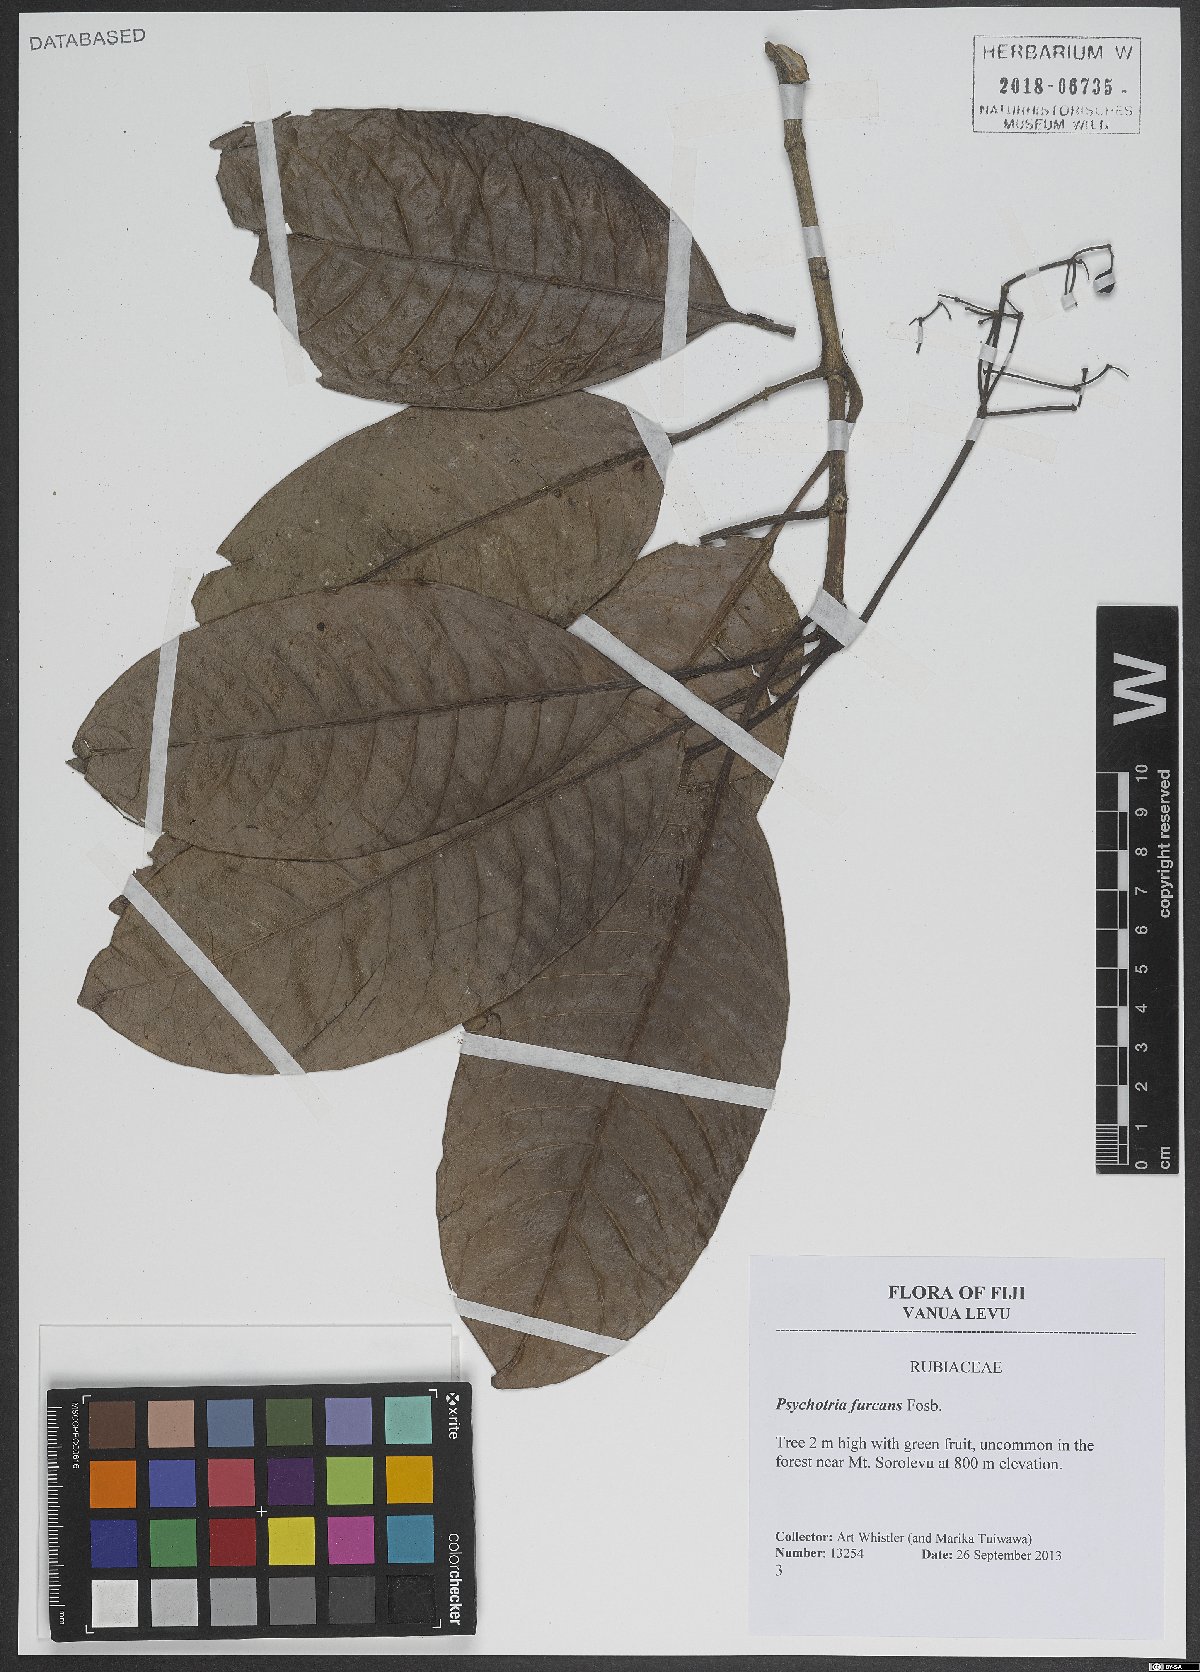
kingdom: Plantae
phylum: Tracheophyta
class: Magnoliopsida
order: Gentianales
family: Rubiaceae
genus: Psychotria
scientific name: Psychotria furcans
